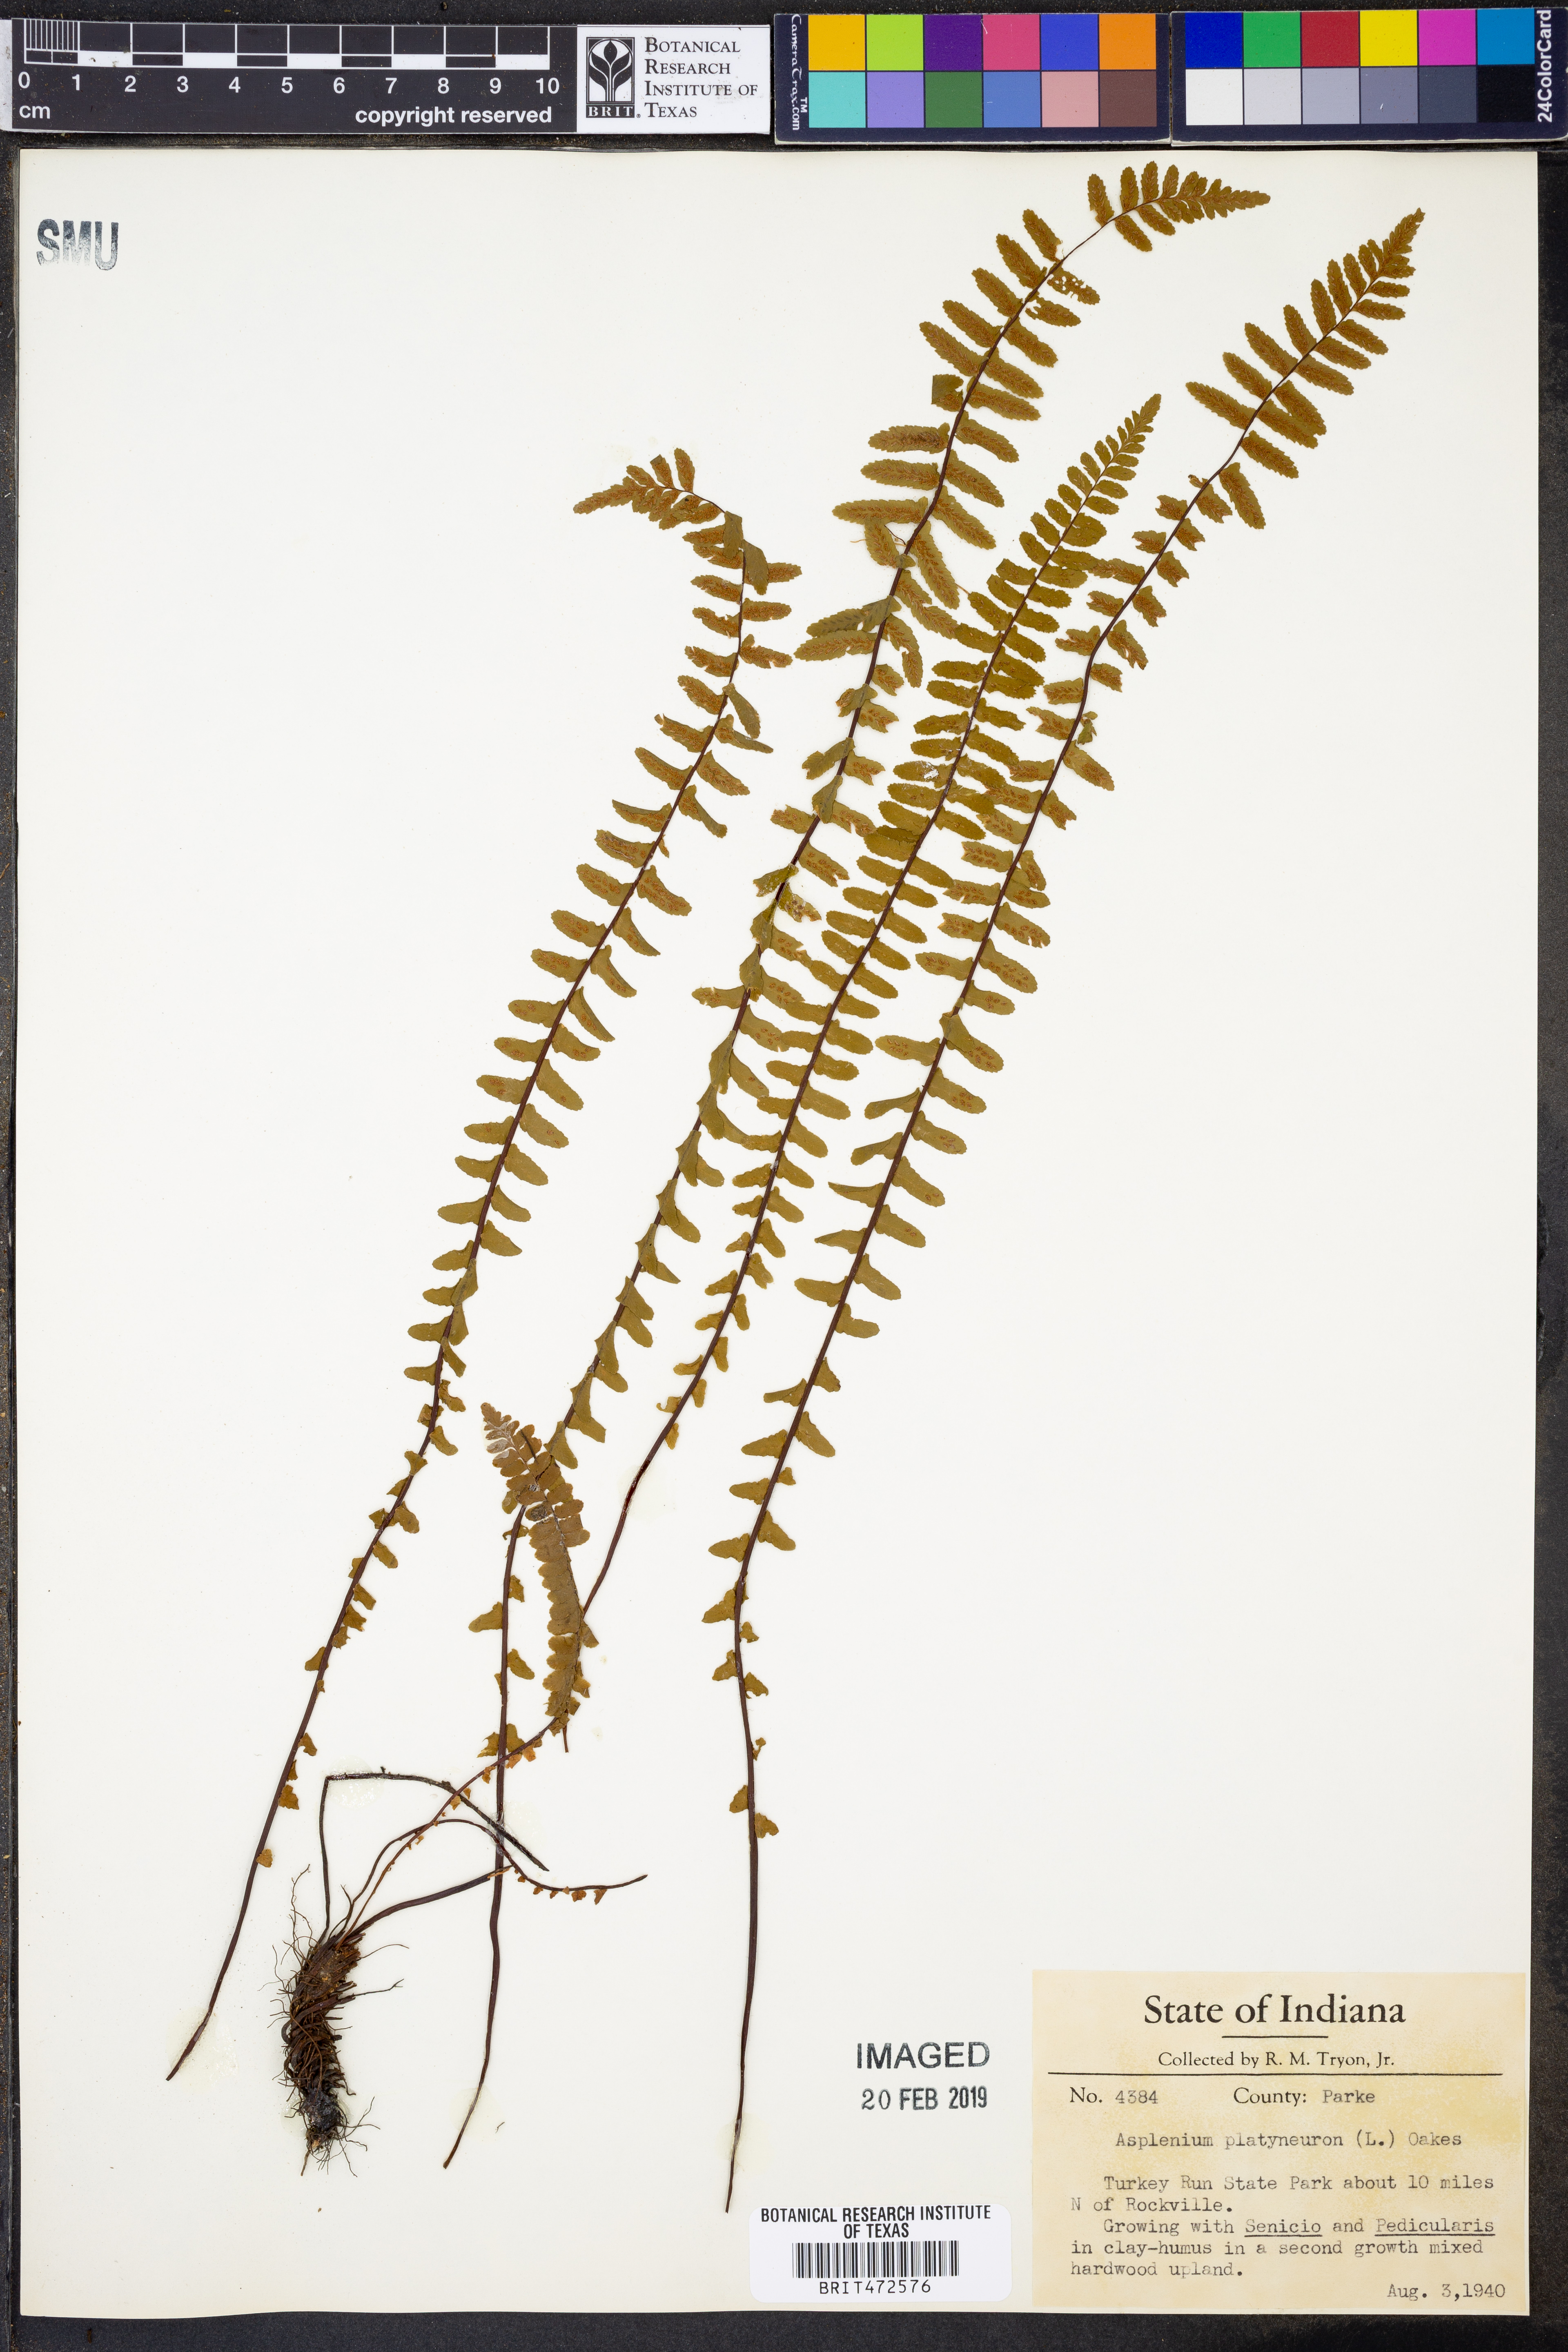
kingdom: Plantae
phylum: Tracheophyta
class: Polypodiopsida
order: Polypodiales
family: Aspleniaceae
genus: Asplenium
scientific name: Asplenium platyneuron
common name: Ebony spleenwort
